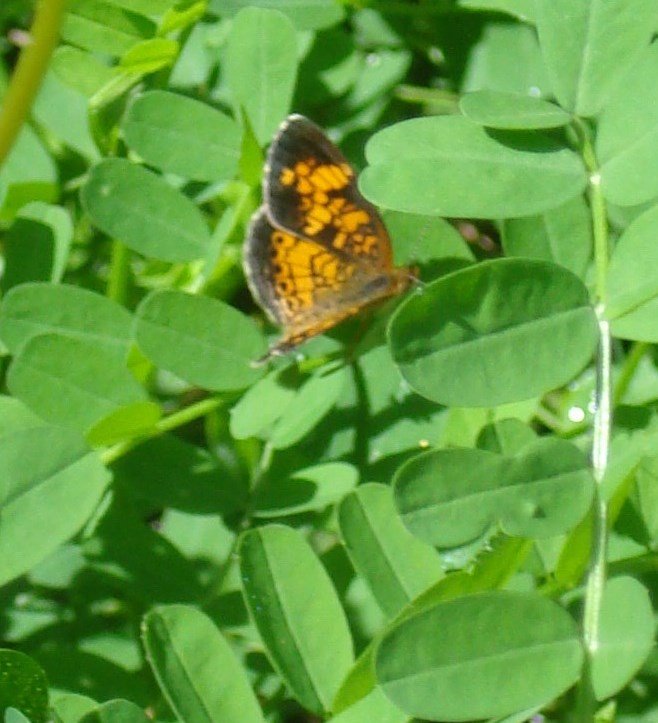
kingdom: Animalia
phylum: Arthropoda
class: Insecta
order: Lepidoptera
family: Nymphalidae
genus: Phyciodes
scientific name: Phyciodes tharos
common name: Pearl Crescent
